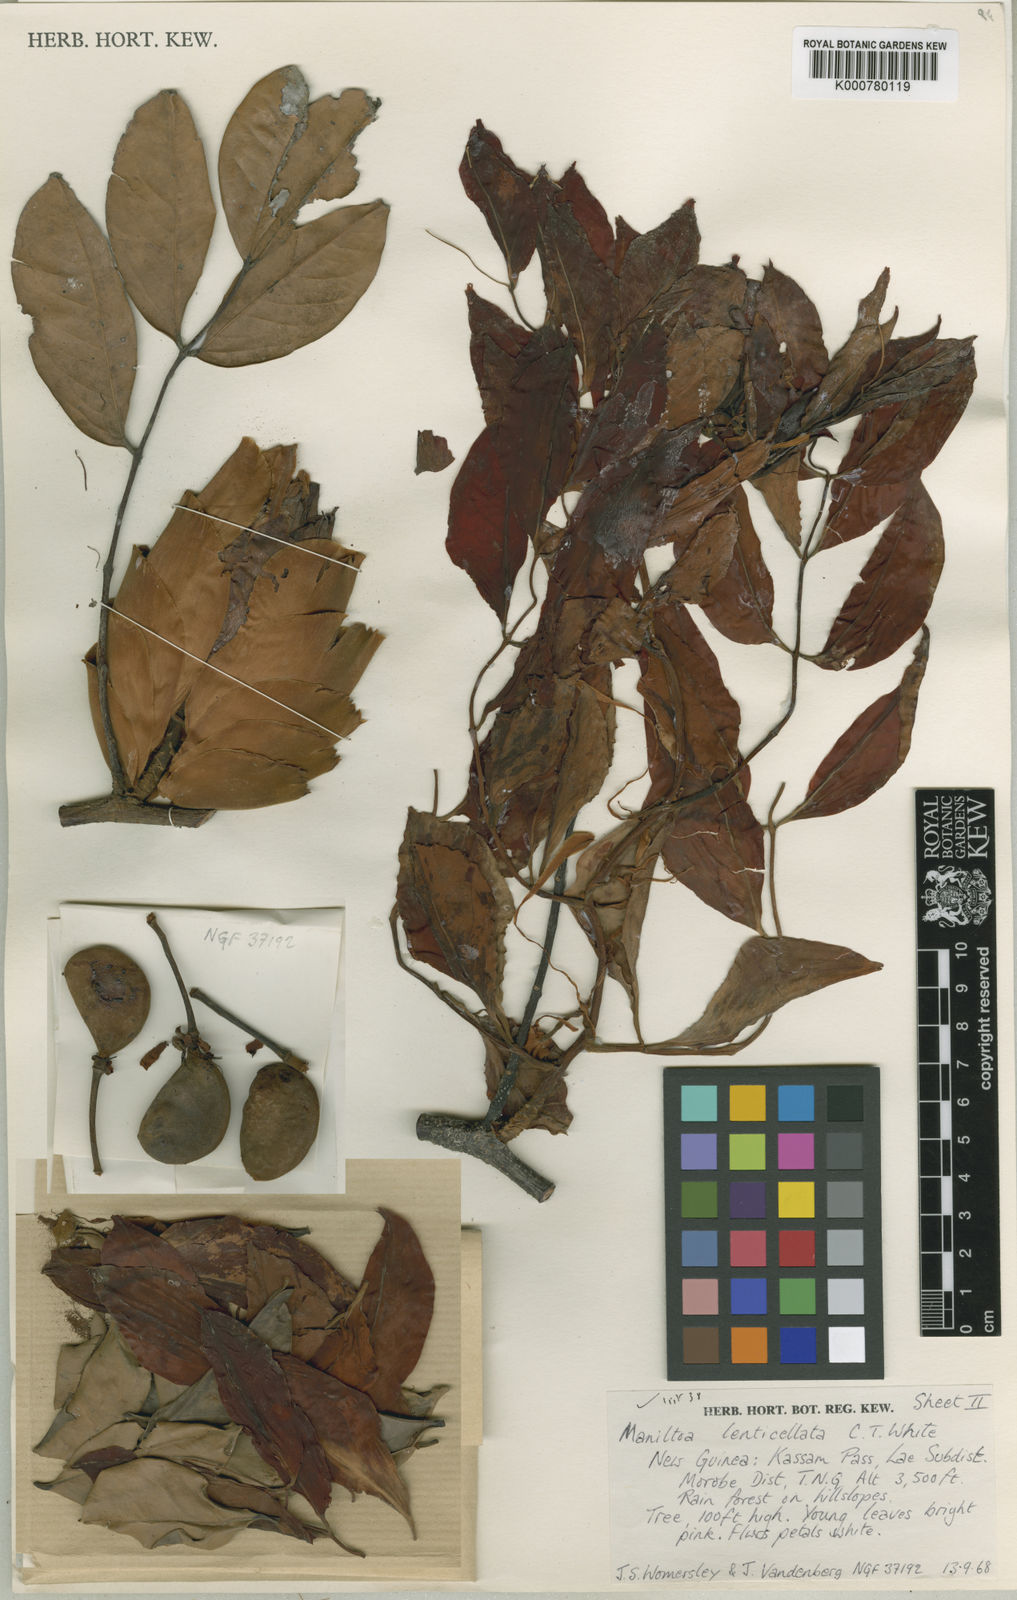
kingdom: Plantae
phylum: Tracheophyta
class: Magnoliopsida
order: Fabales
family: Fabaceae
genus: Cynometra
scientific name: Cynometra lenticellata
